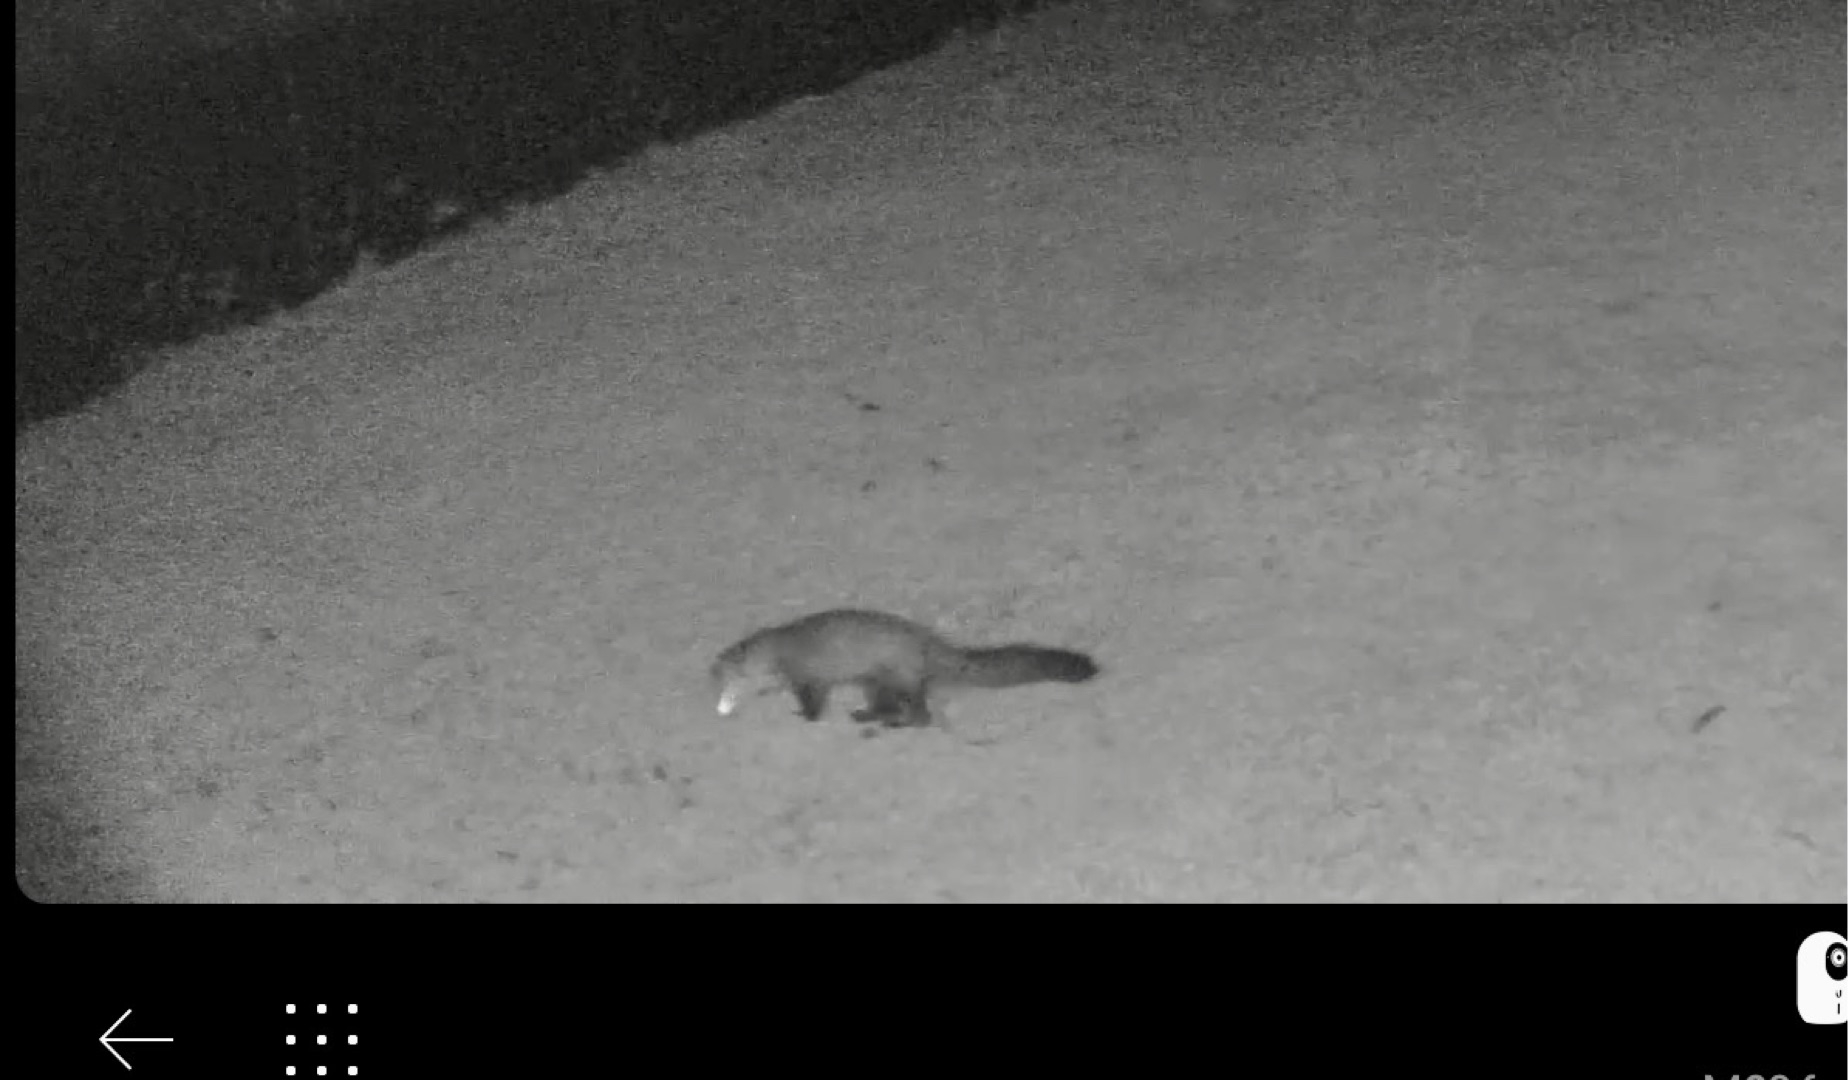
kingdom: Animalia
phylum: Chordata
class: Mammalia
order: Carnivora
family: Mustelidae
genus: Martes
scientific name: Martes foina
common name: Husmår
